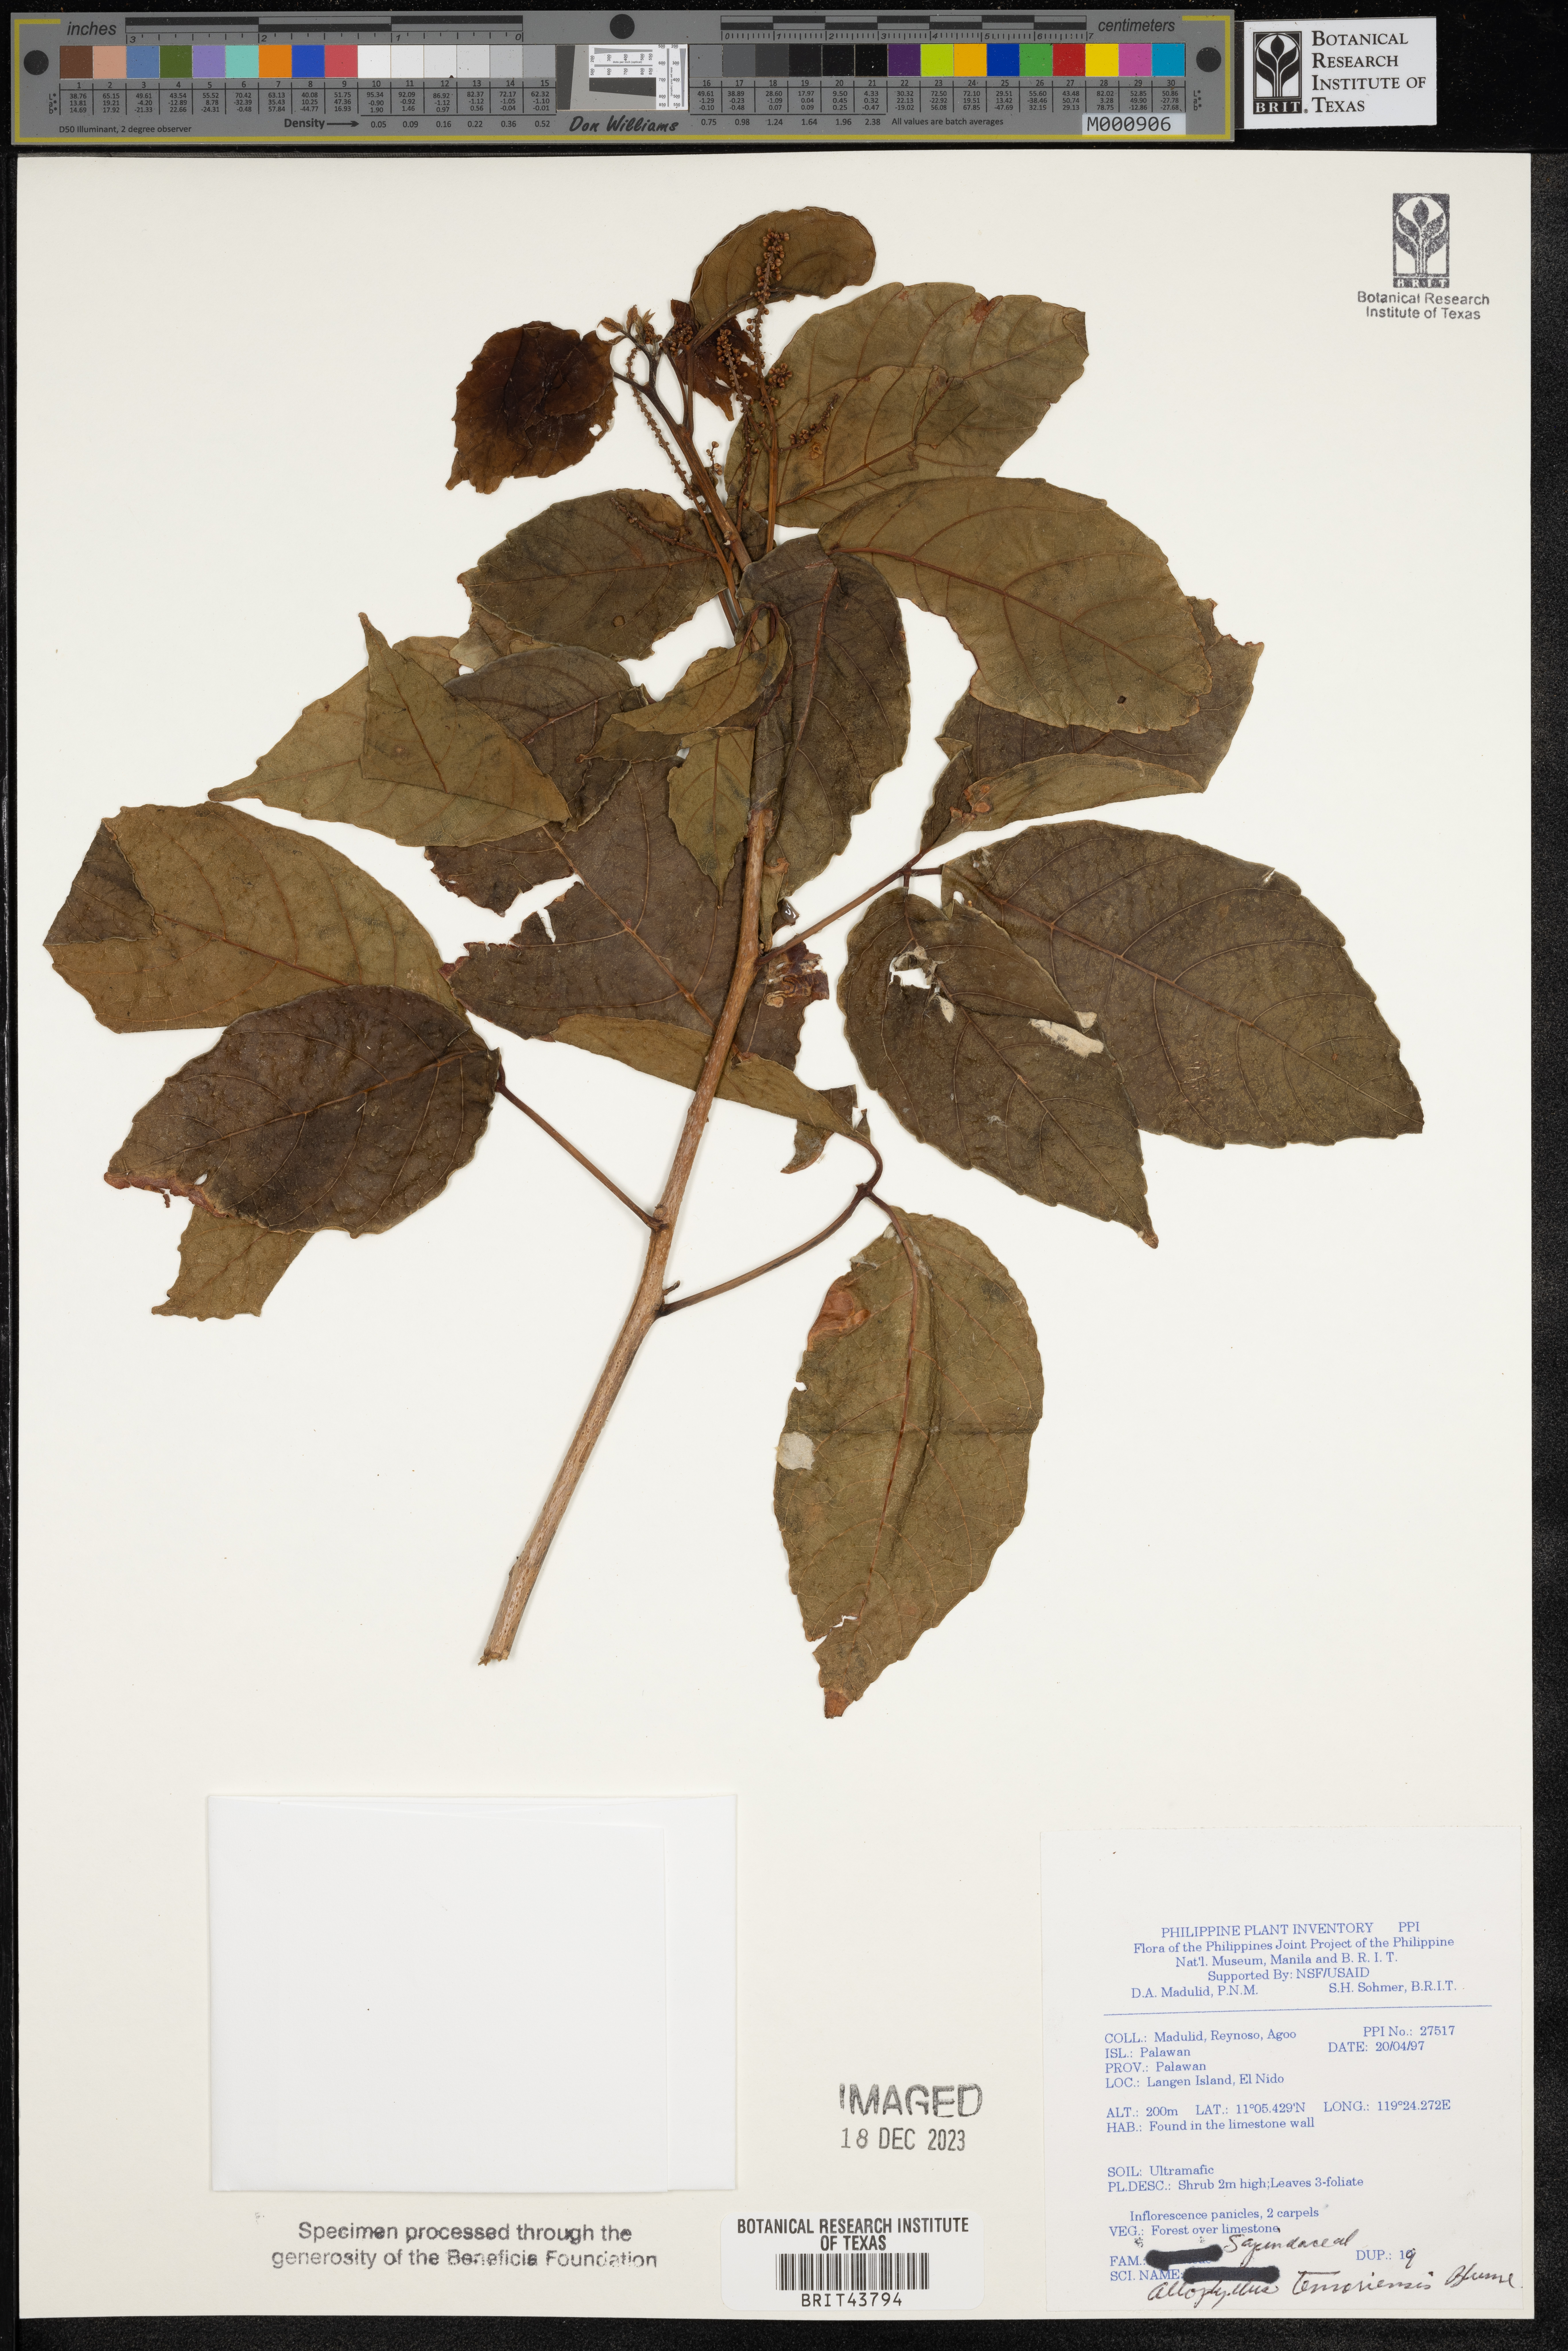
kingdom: Plantae
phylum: Tracheophyta
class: Magnoliopsida
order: Sapindales
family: Sapindaceae
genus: Allophylus
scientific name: Allophylus timorensis
